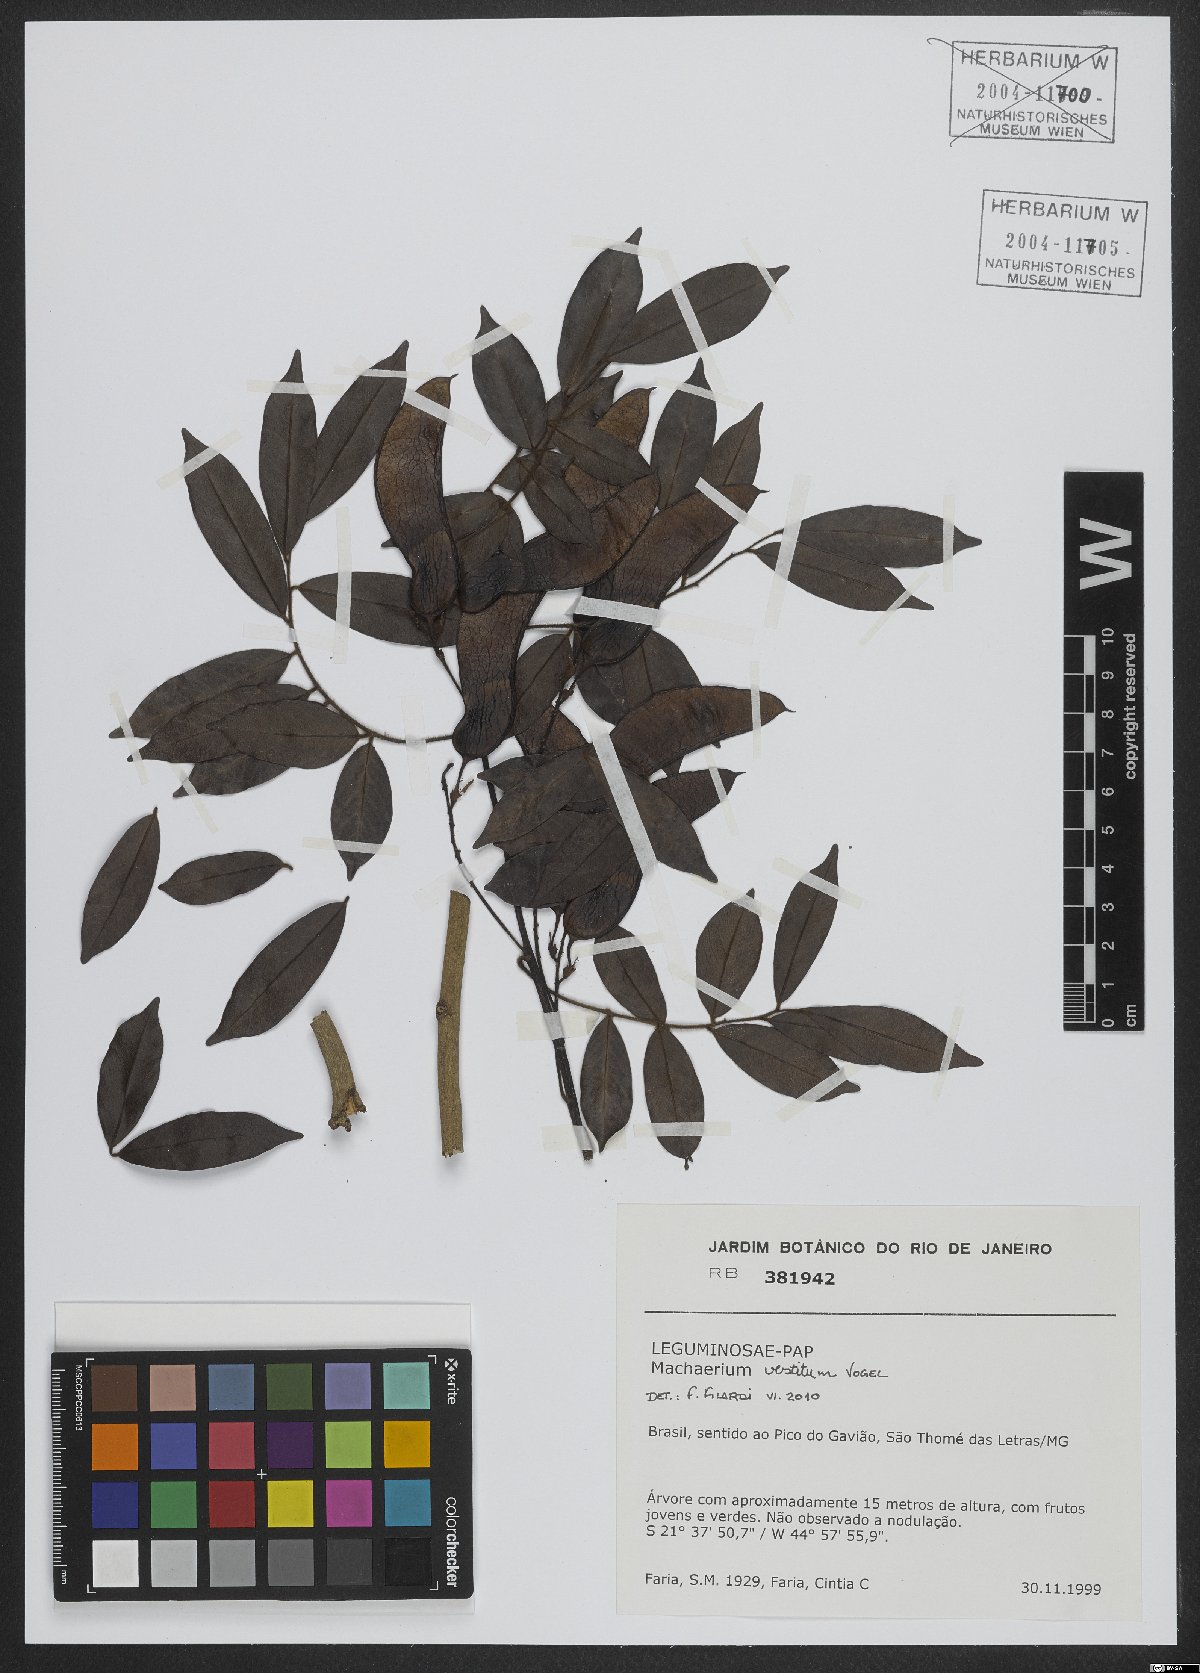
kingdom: Plantae
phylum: Tracheophyta
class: Magnoliopsida
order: Fabales
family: Fabaceae
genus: Machaerium
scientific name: Machaerium brasiliense
